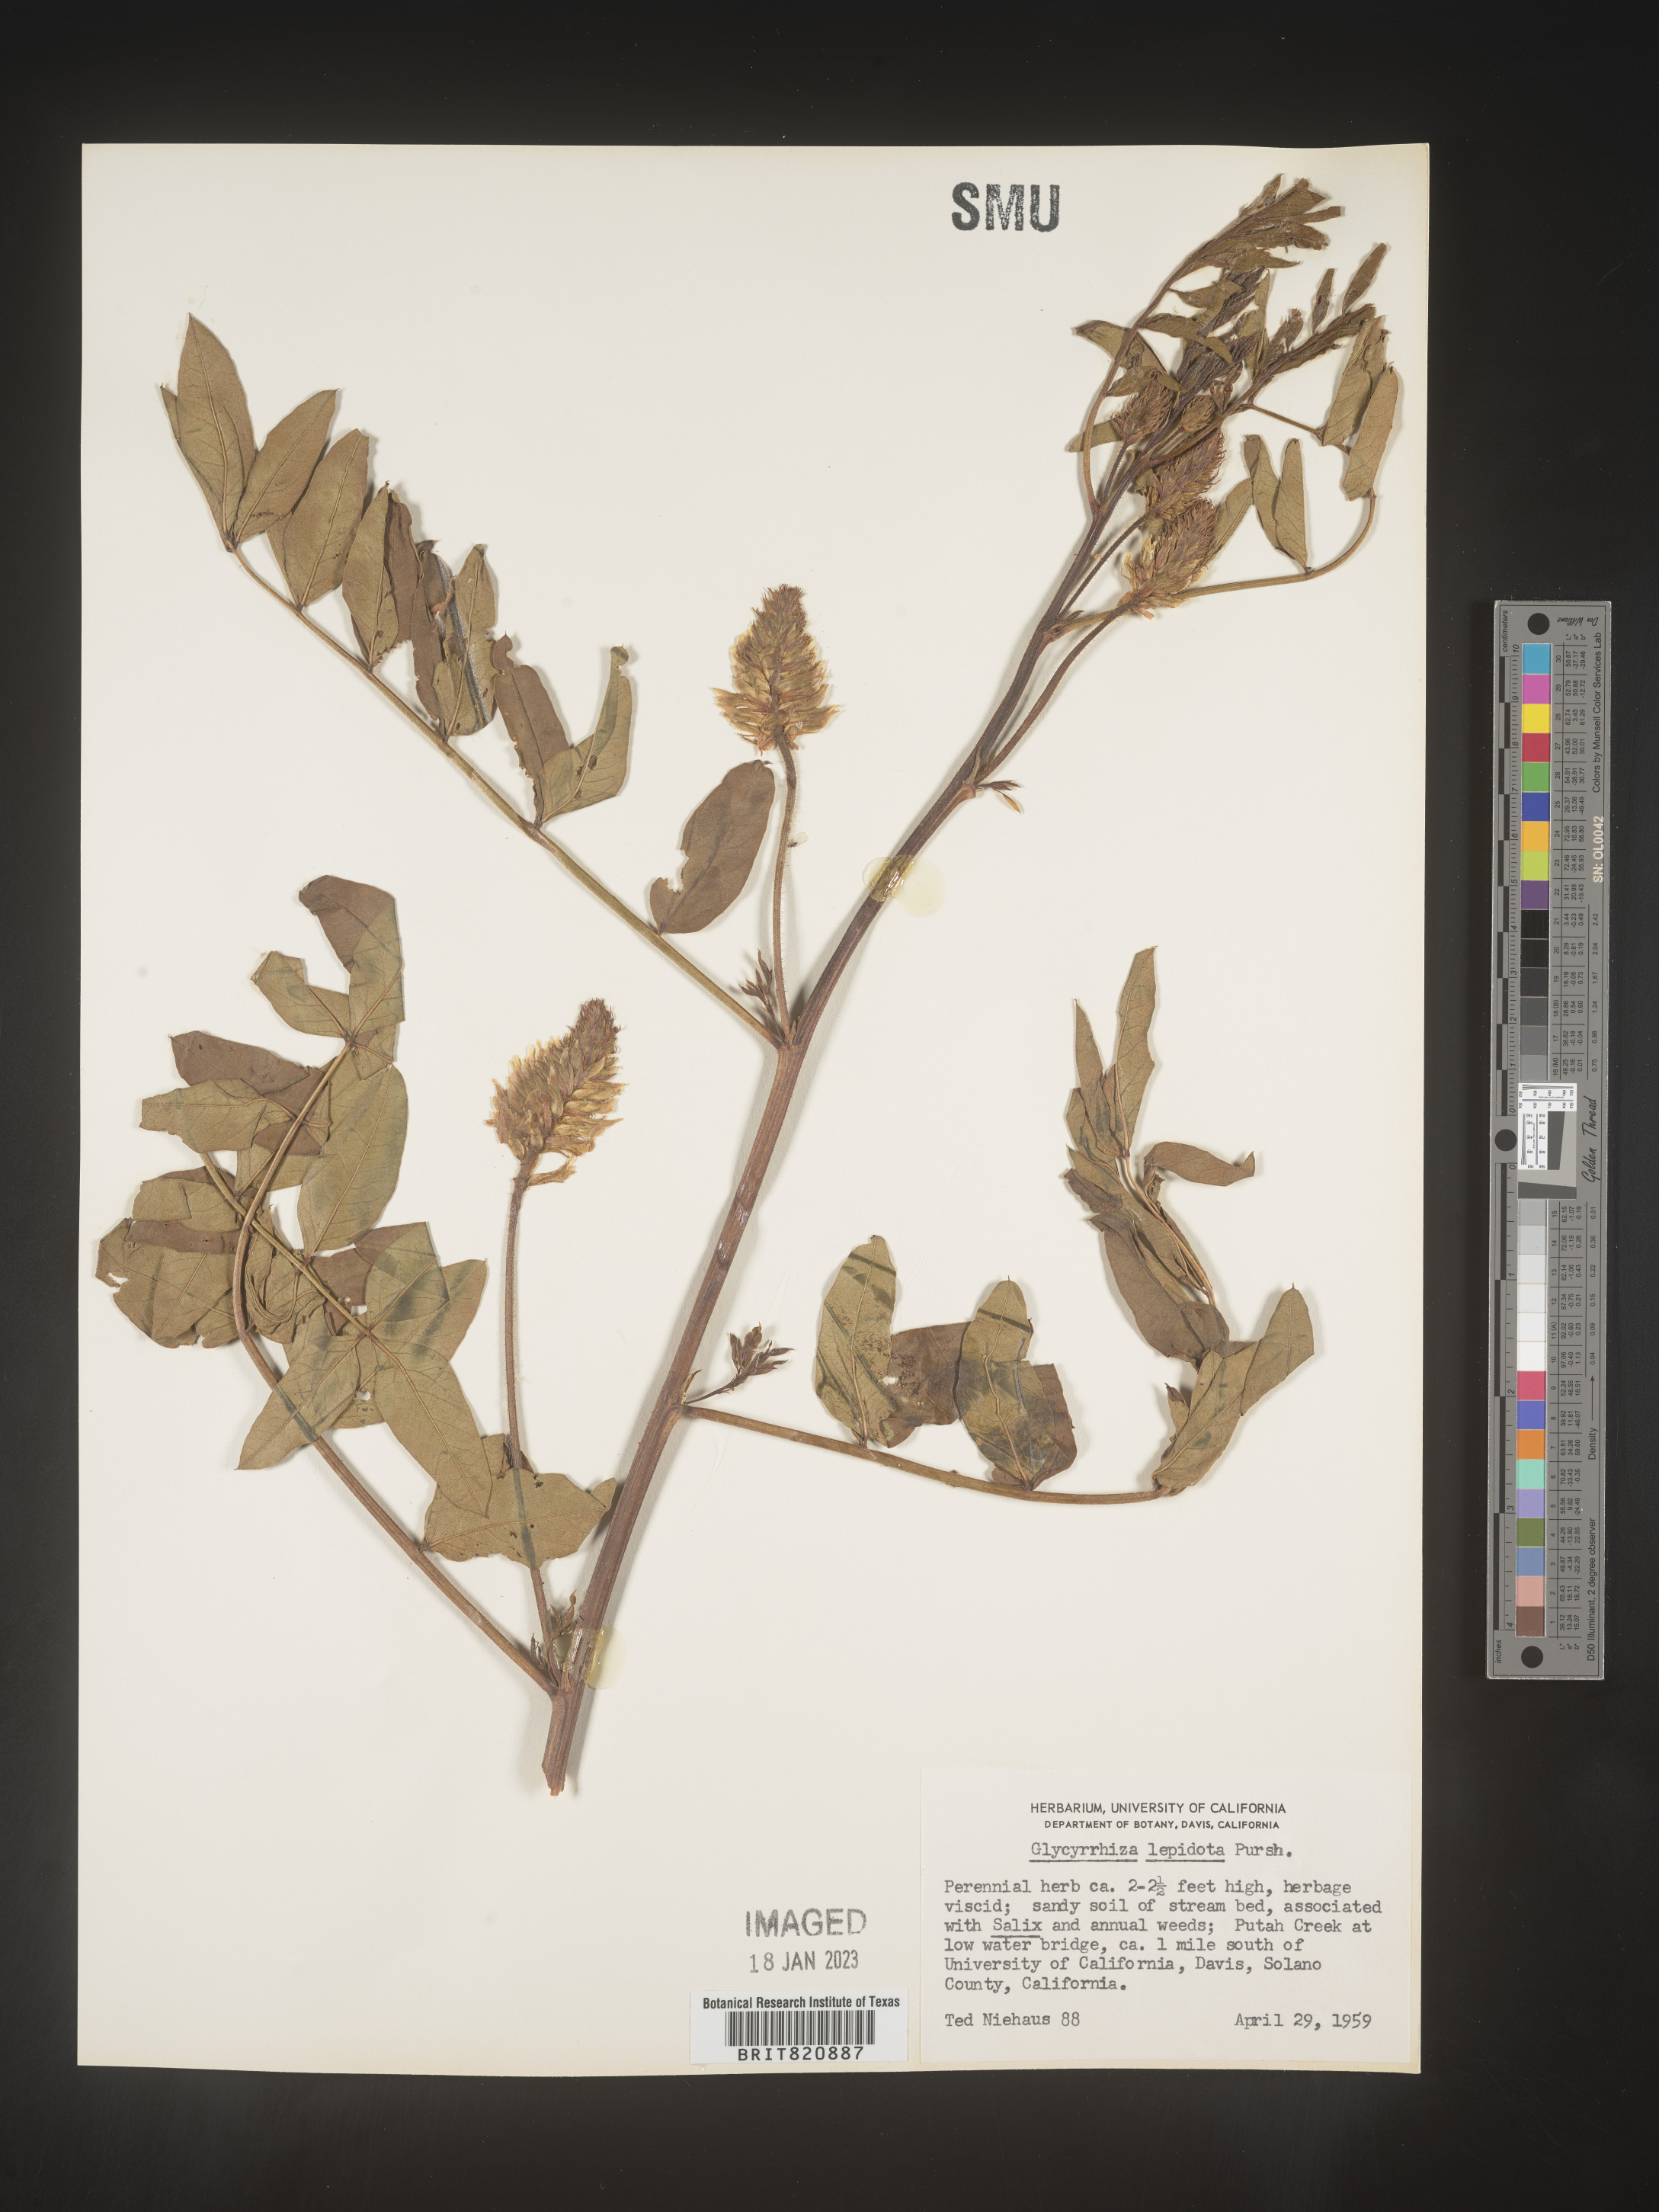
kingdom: Plantae
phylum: Tracheophyta
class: Magnoliopsida
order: Fabales
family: Fabaceae
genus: Glycyrrhiza
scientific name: Glycyrrhiza lepidota
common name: American liquorice
